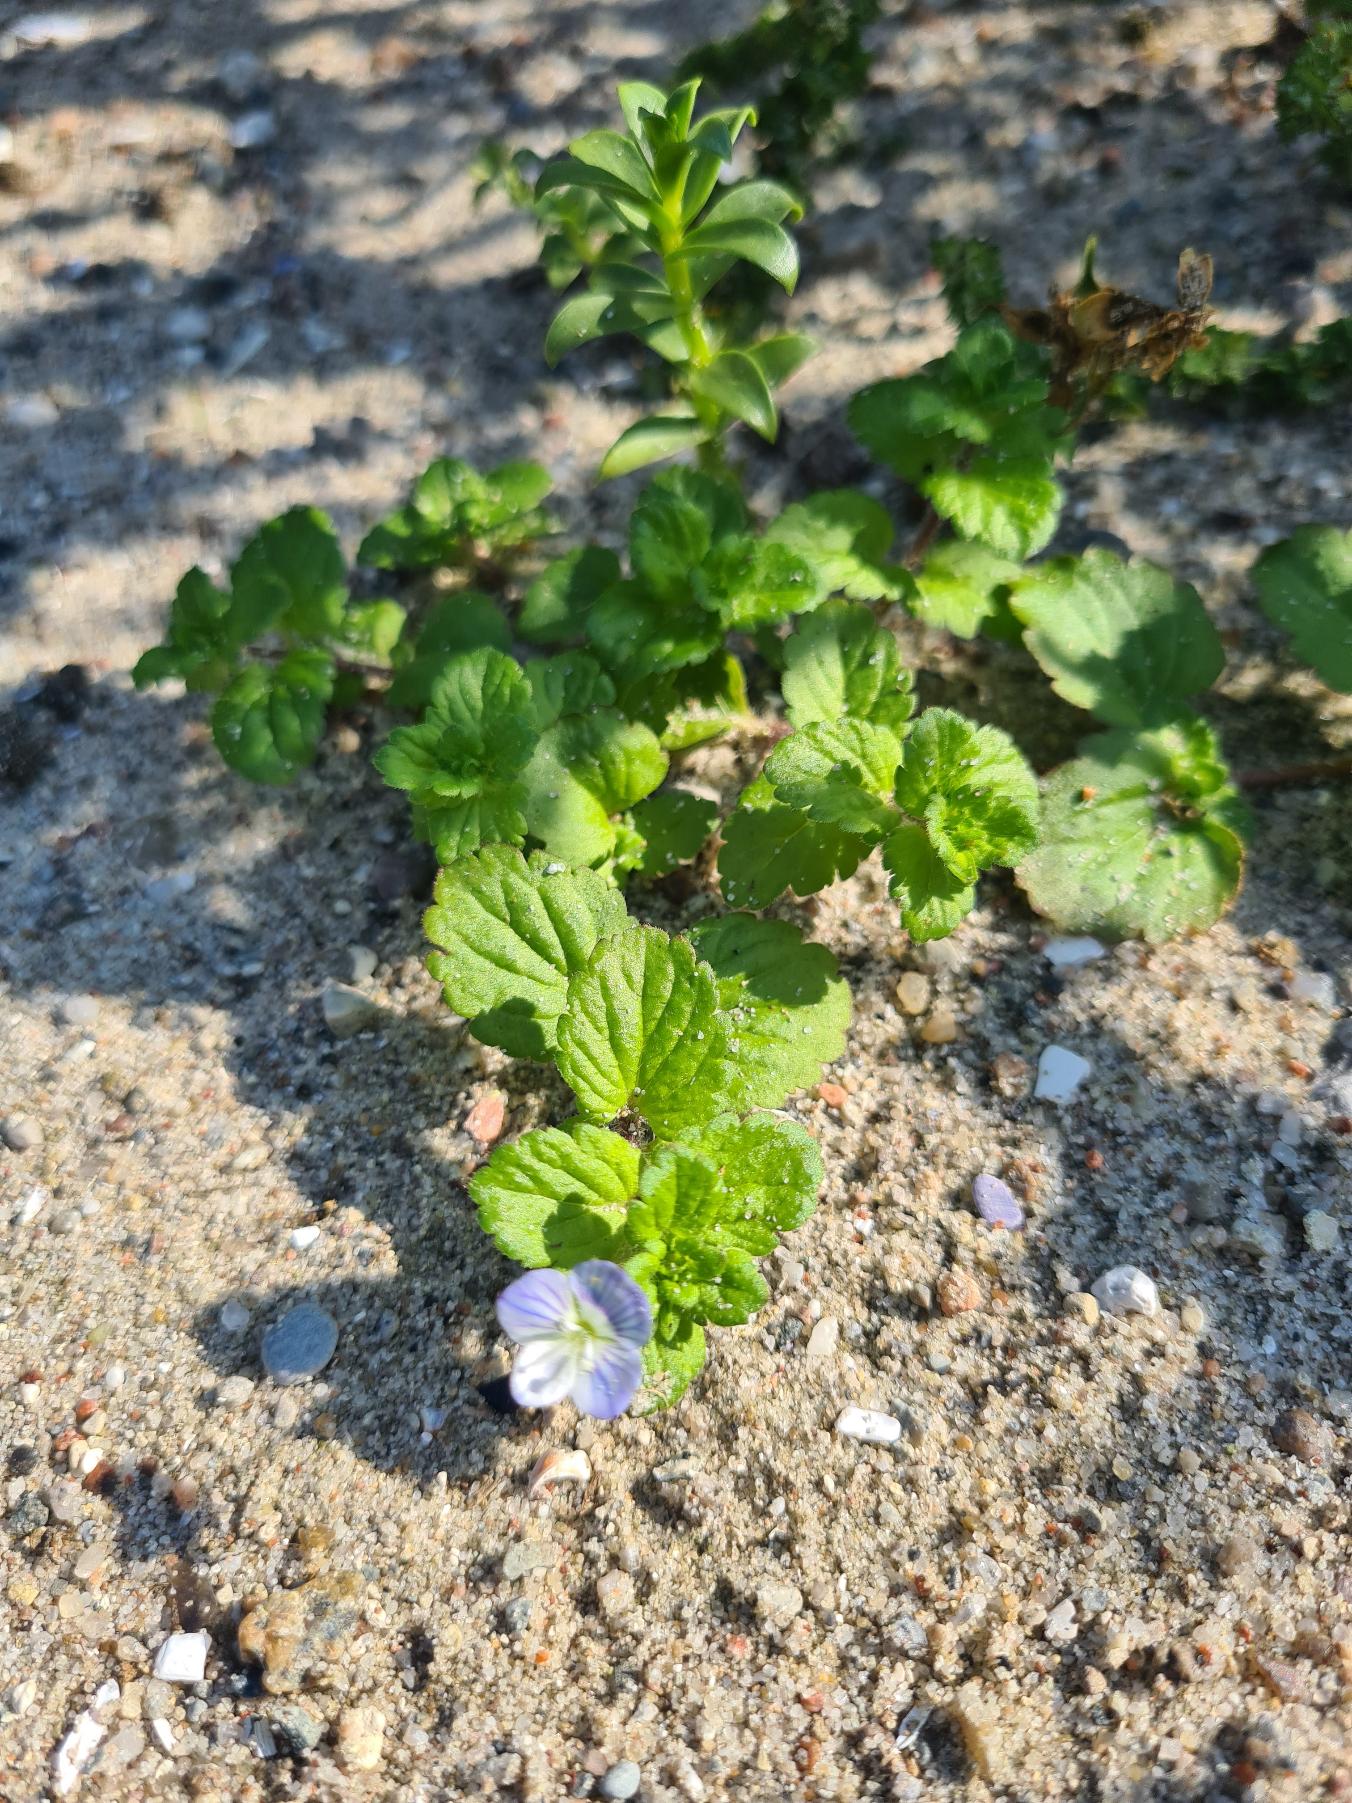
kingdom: Plantae
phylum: Tracheophyta
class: Magnoliopsida
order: Lamiales
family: Plantaginaceae
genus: Veronica
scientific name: Veronica persica
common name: Storkronet ærenpris
